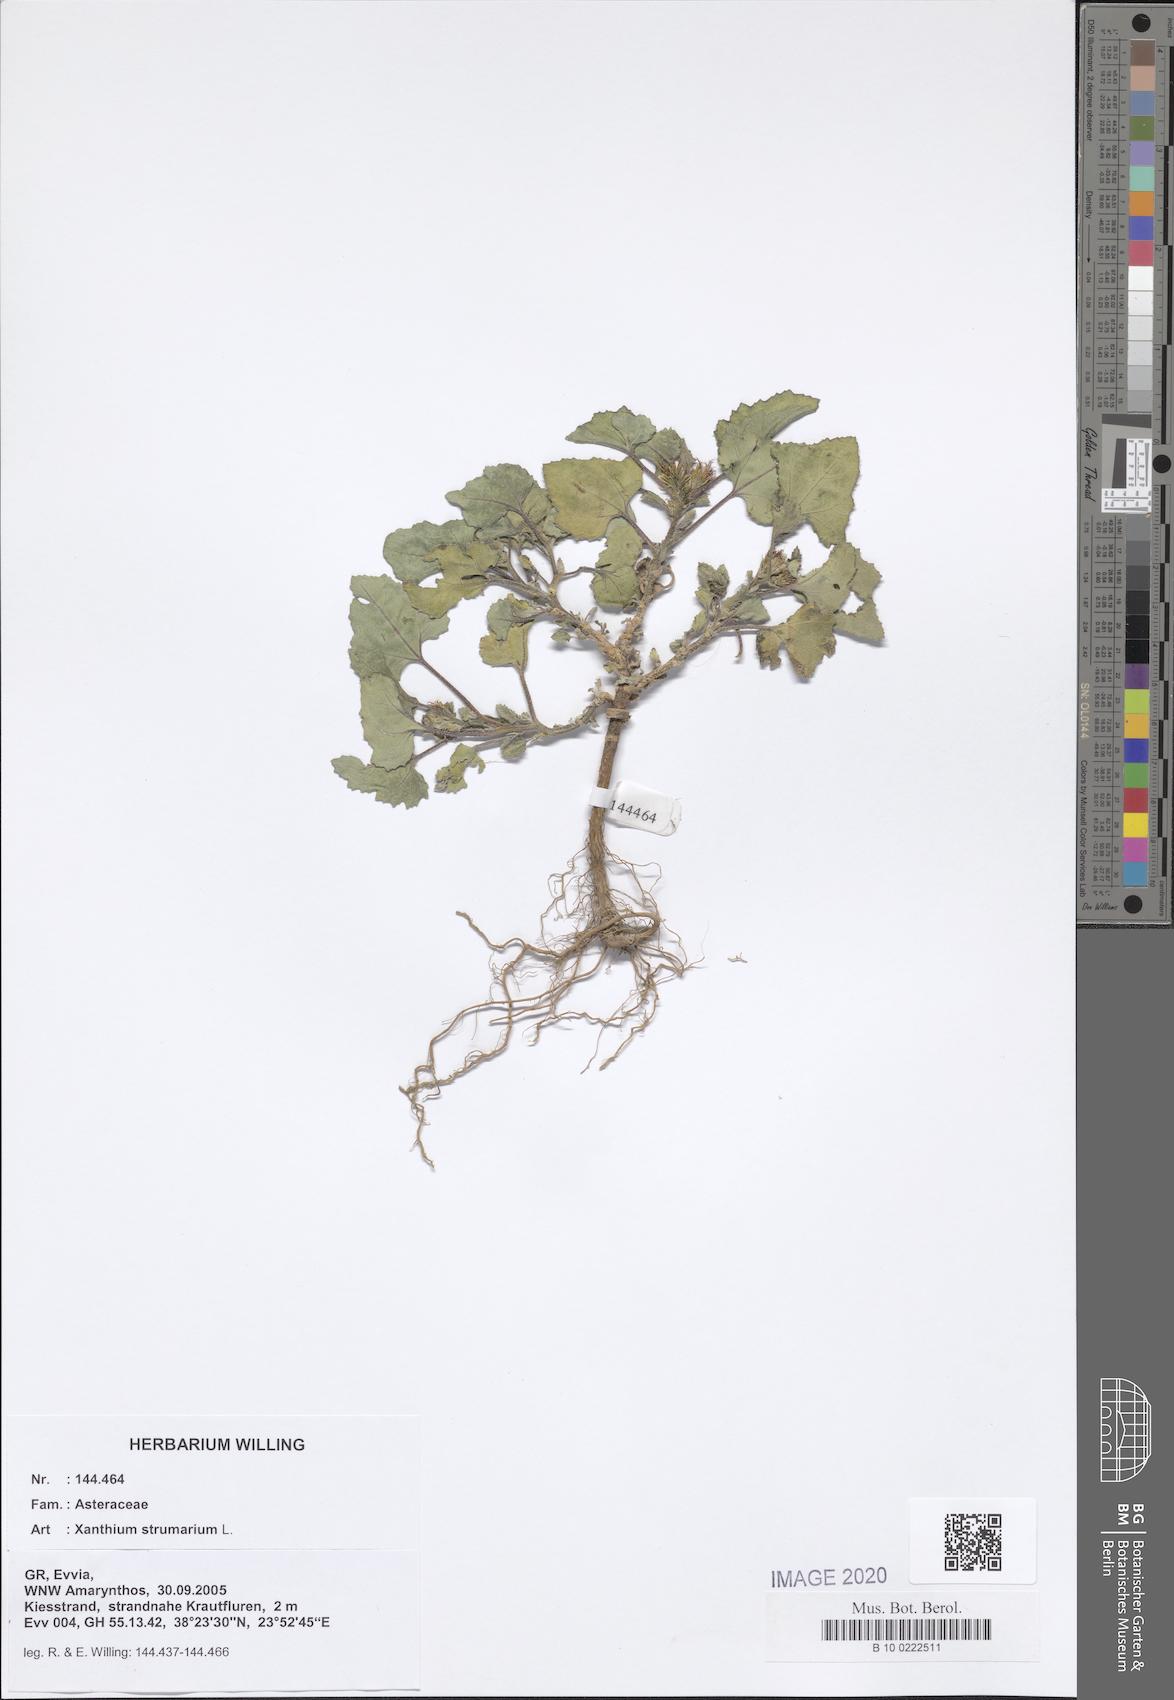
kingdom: Plantae
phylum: Tracheophyta
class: Magnoliopsida
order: Asterales
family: Asteraceae
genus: Xanthium
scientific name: Xanthium strumarium
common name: Rough cocklebur
